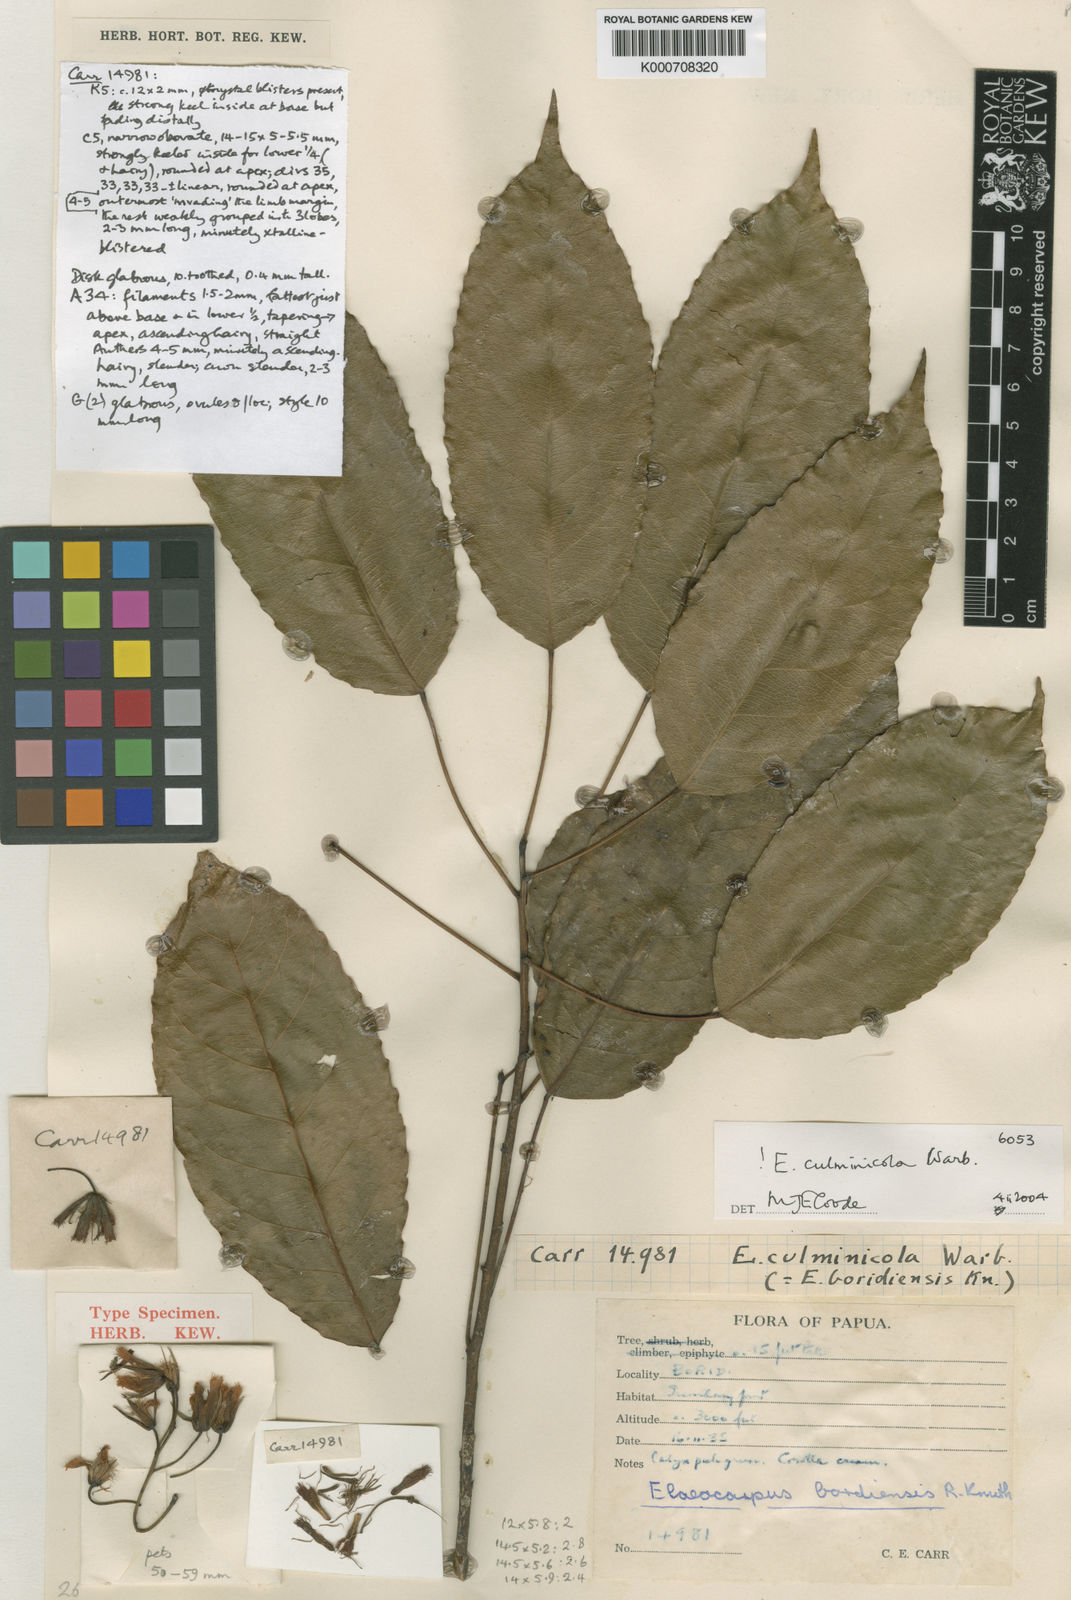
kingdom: Plantae
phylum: Tracheophyta
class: Magnoliopsida
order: Oxalidales
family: Elaeocarpaceae
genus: Elaeocarpus
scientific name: Elaeocarpus culminicola
